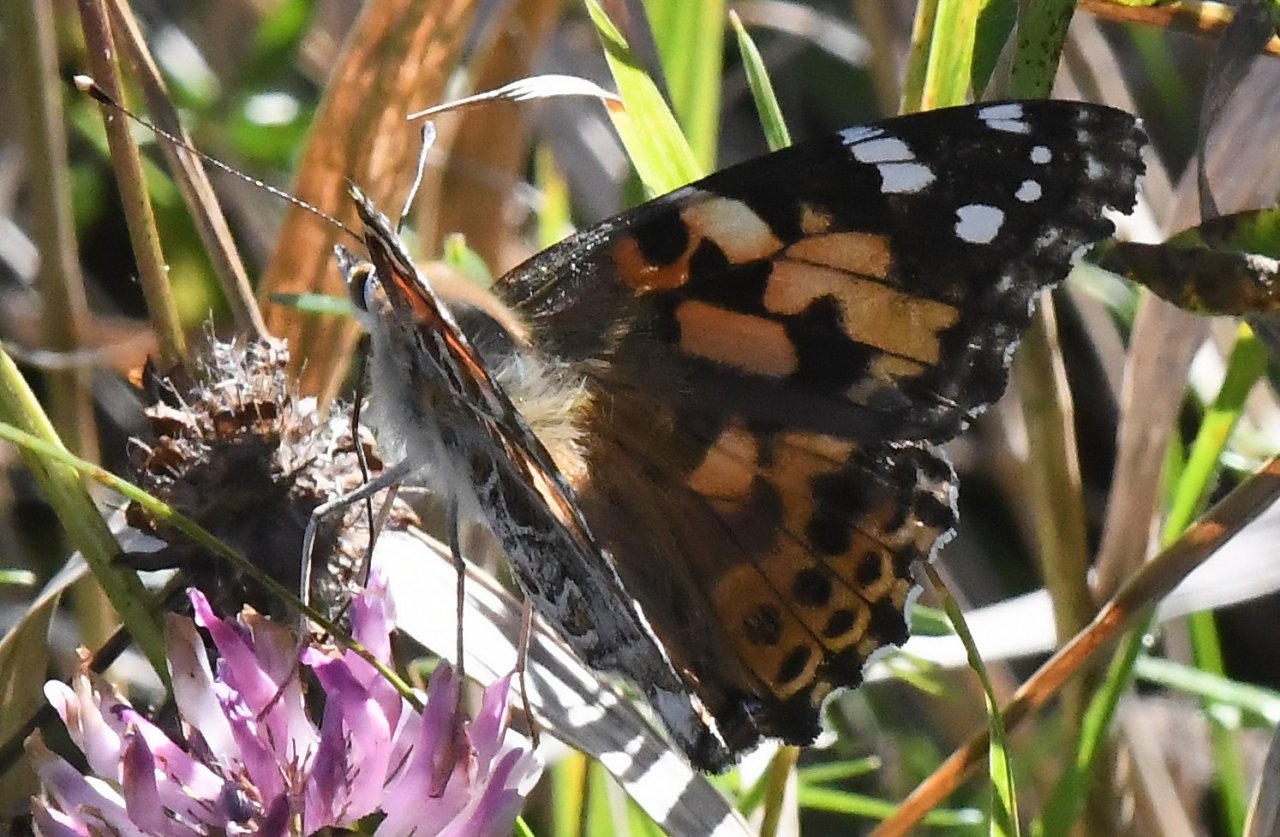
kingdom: Animalia
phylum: Arthropoda
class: Insecta
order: Lepidoptera
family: Nymphalidae
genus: Vanessa
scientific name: Vanessa cardui
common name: Painted Lady
